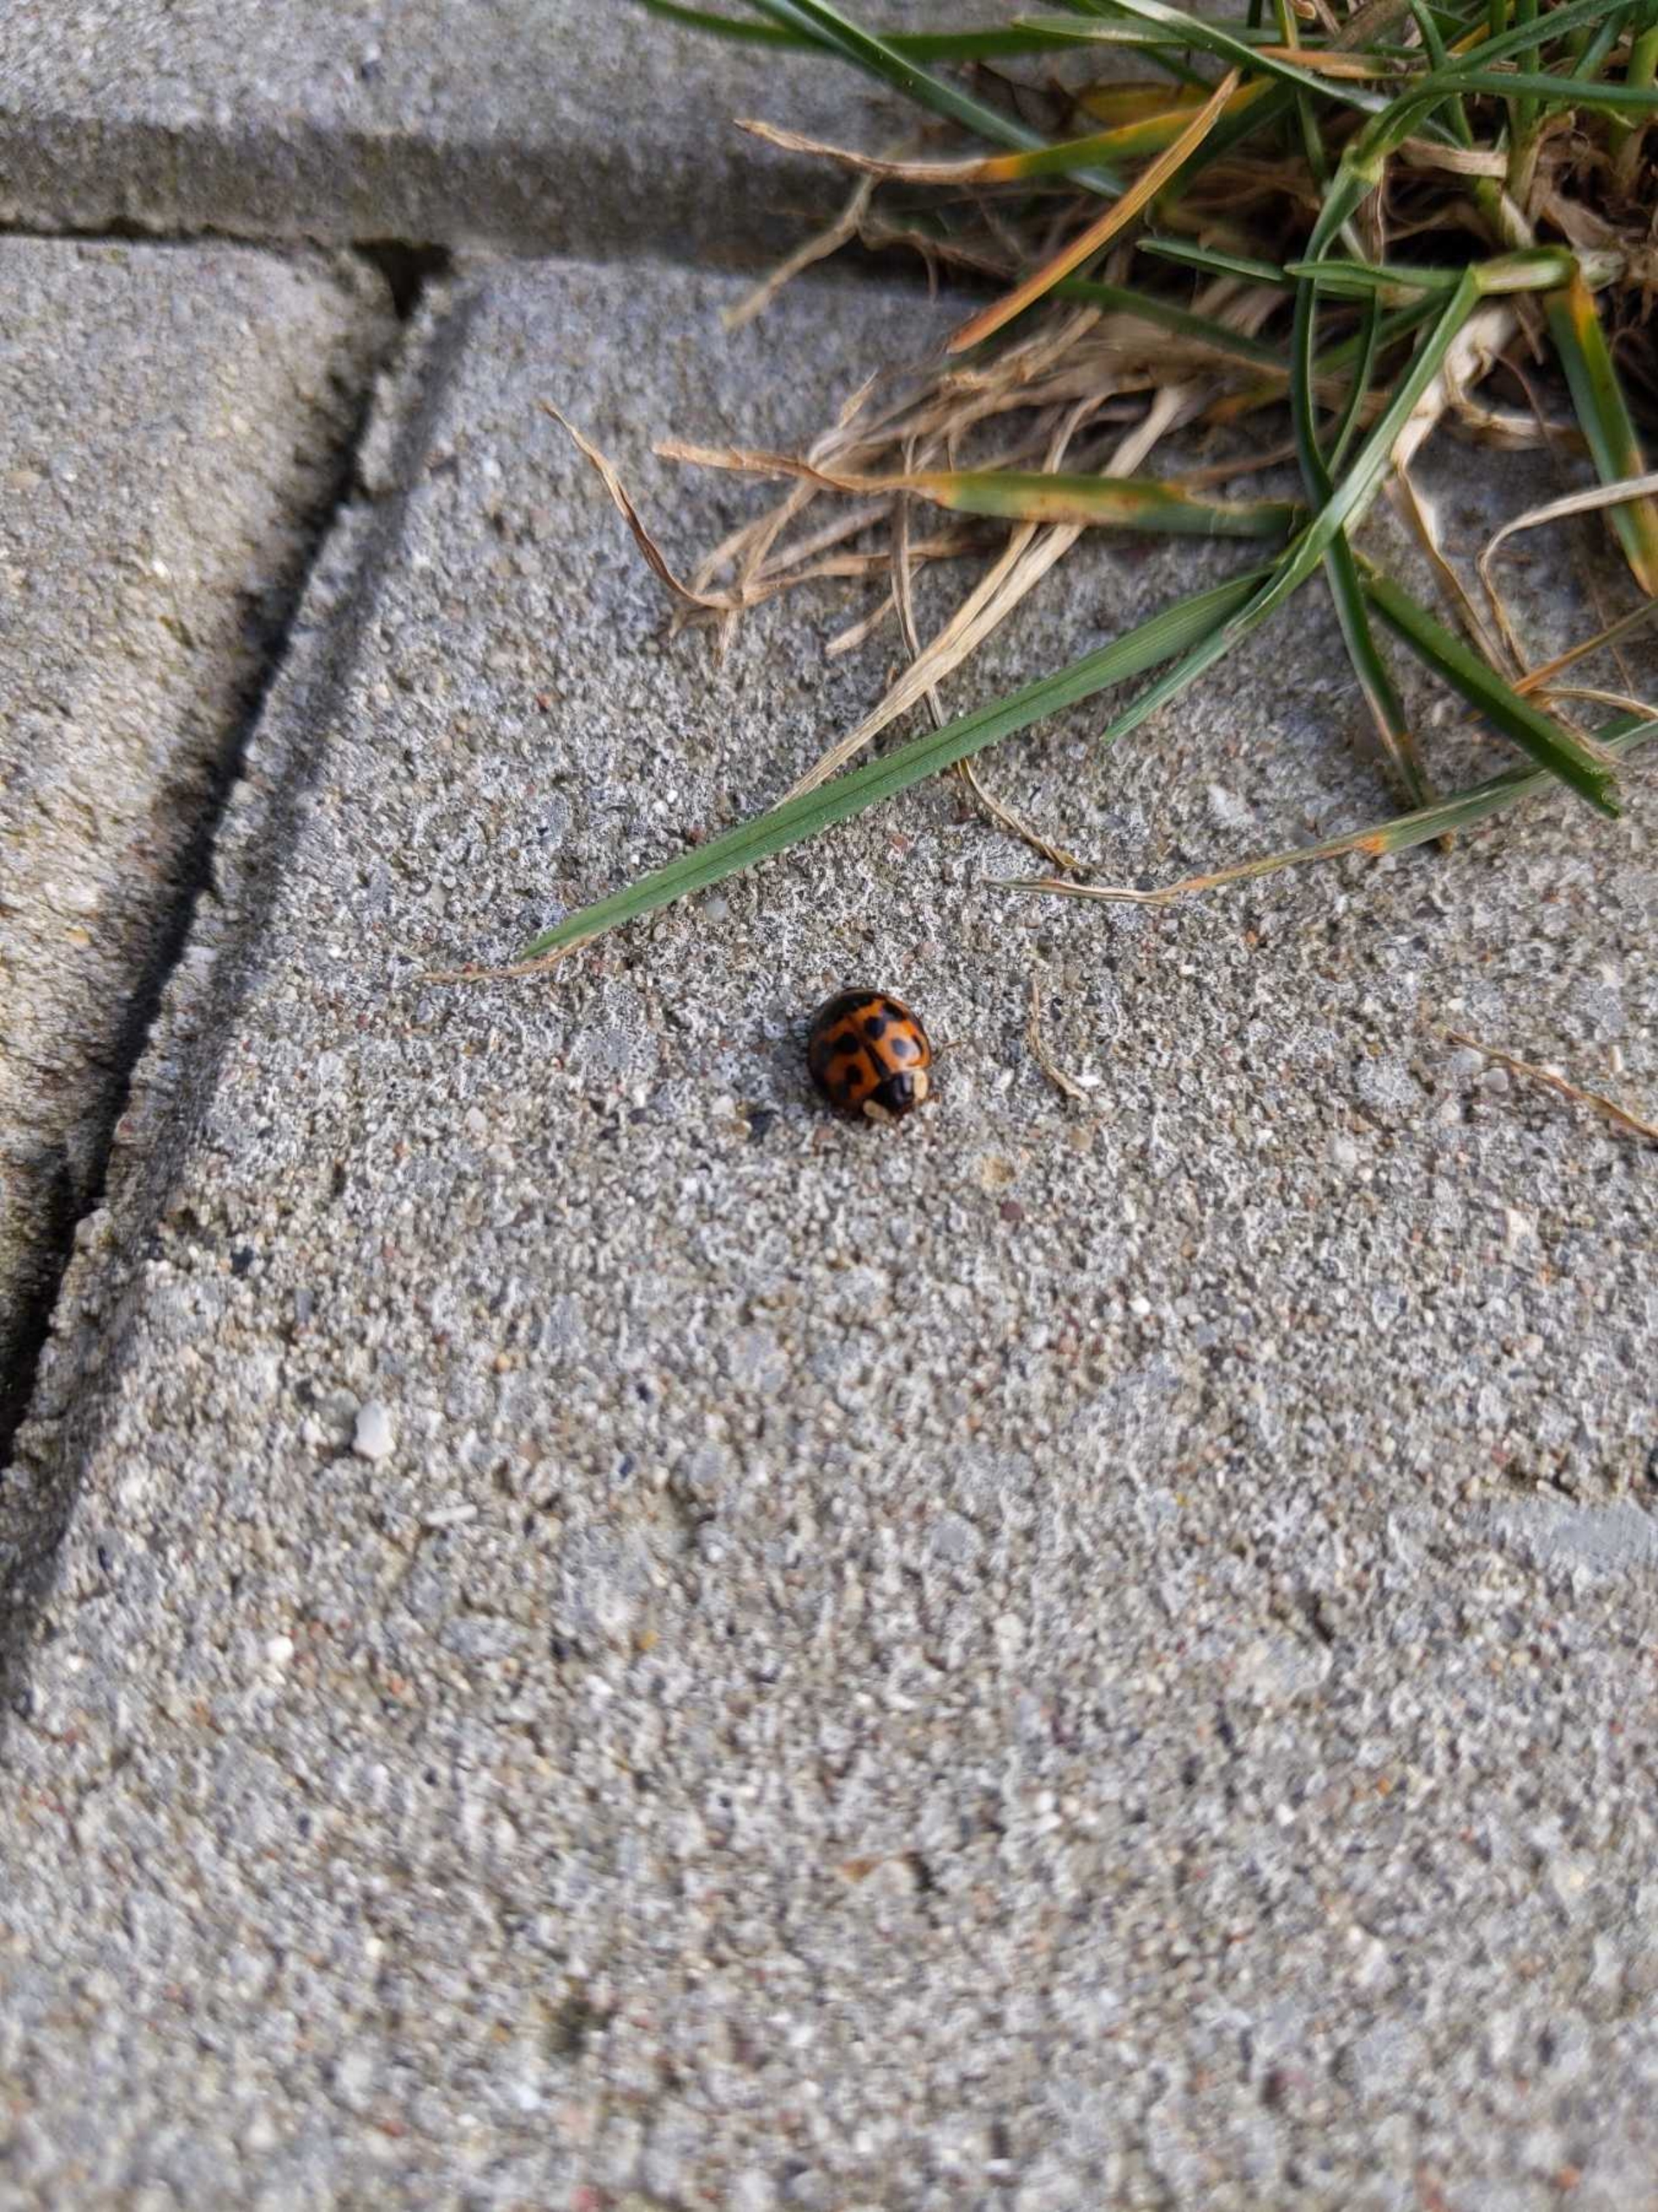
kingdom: Animalia
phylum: Arthropoda
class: Insecta
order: Coleoptera
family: Coccinellidae
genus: Harmonia
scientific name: Harmonia axyridis
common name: Harlekinmariehøne
